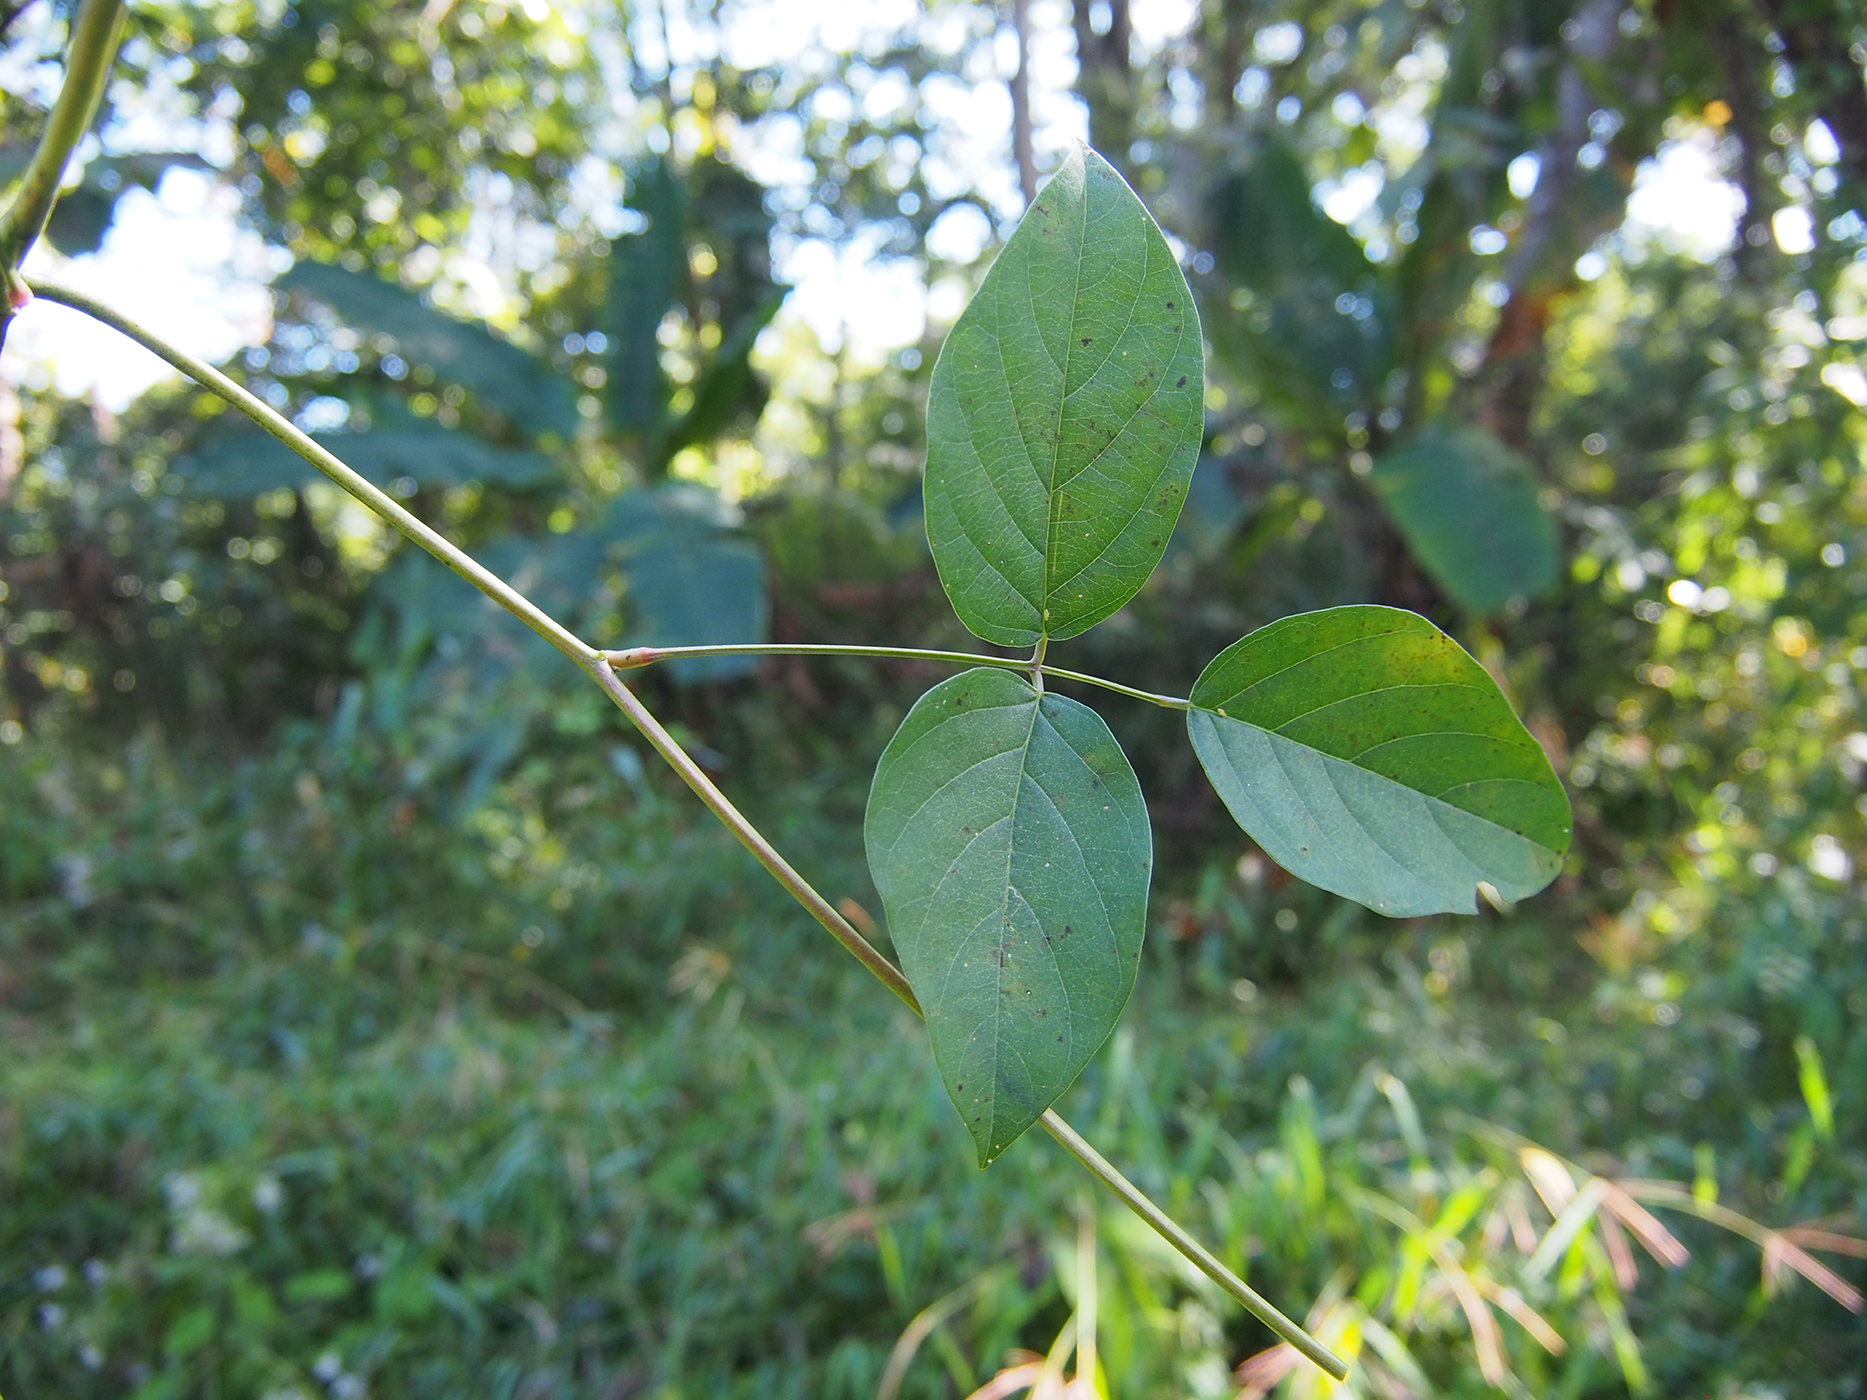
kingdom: Plantae
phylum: Tracheophyta
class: Magnoliopsida
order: Fabales
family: Fabaceae
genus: Canavalia
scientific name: Canavalia
